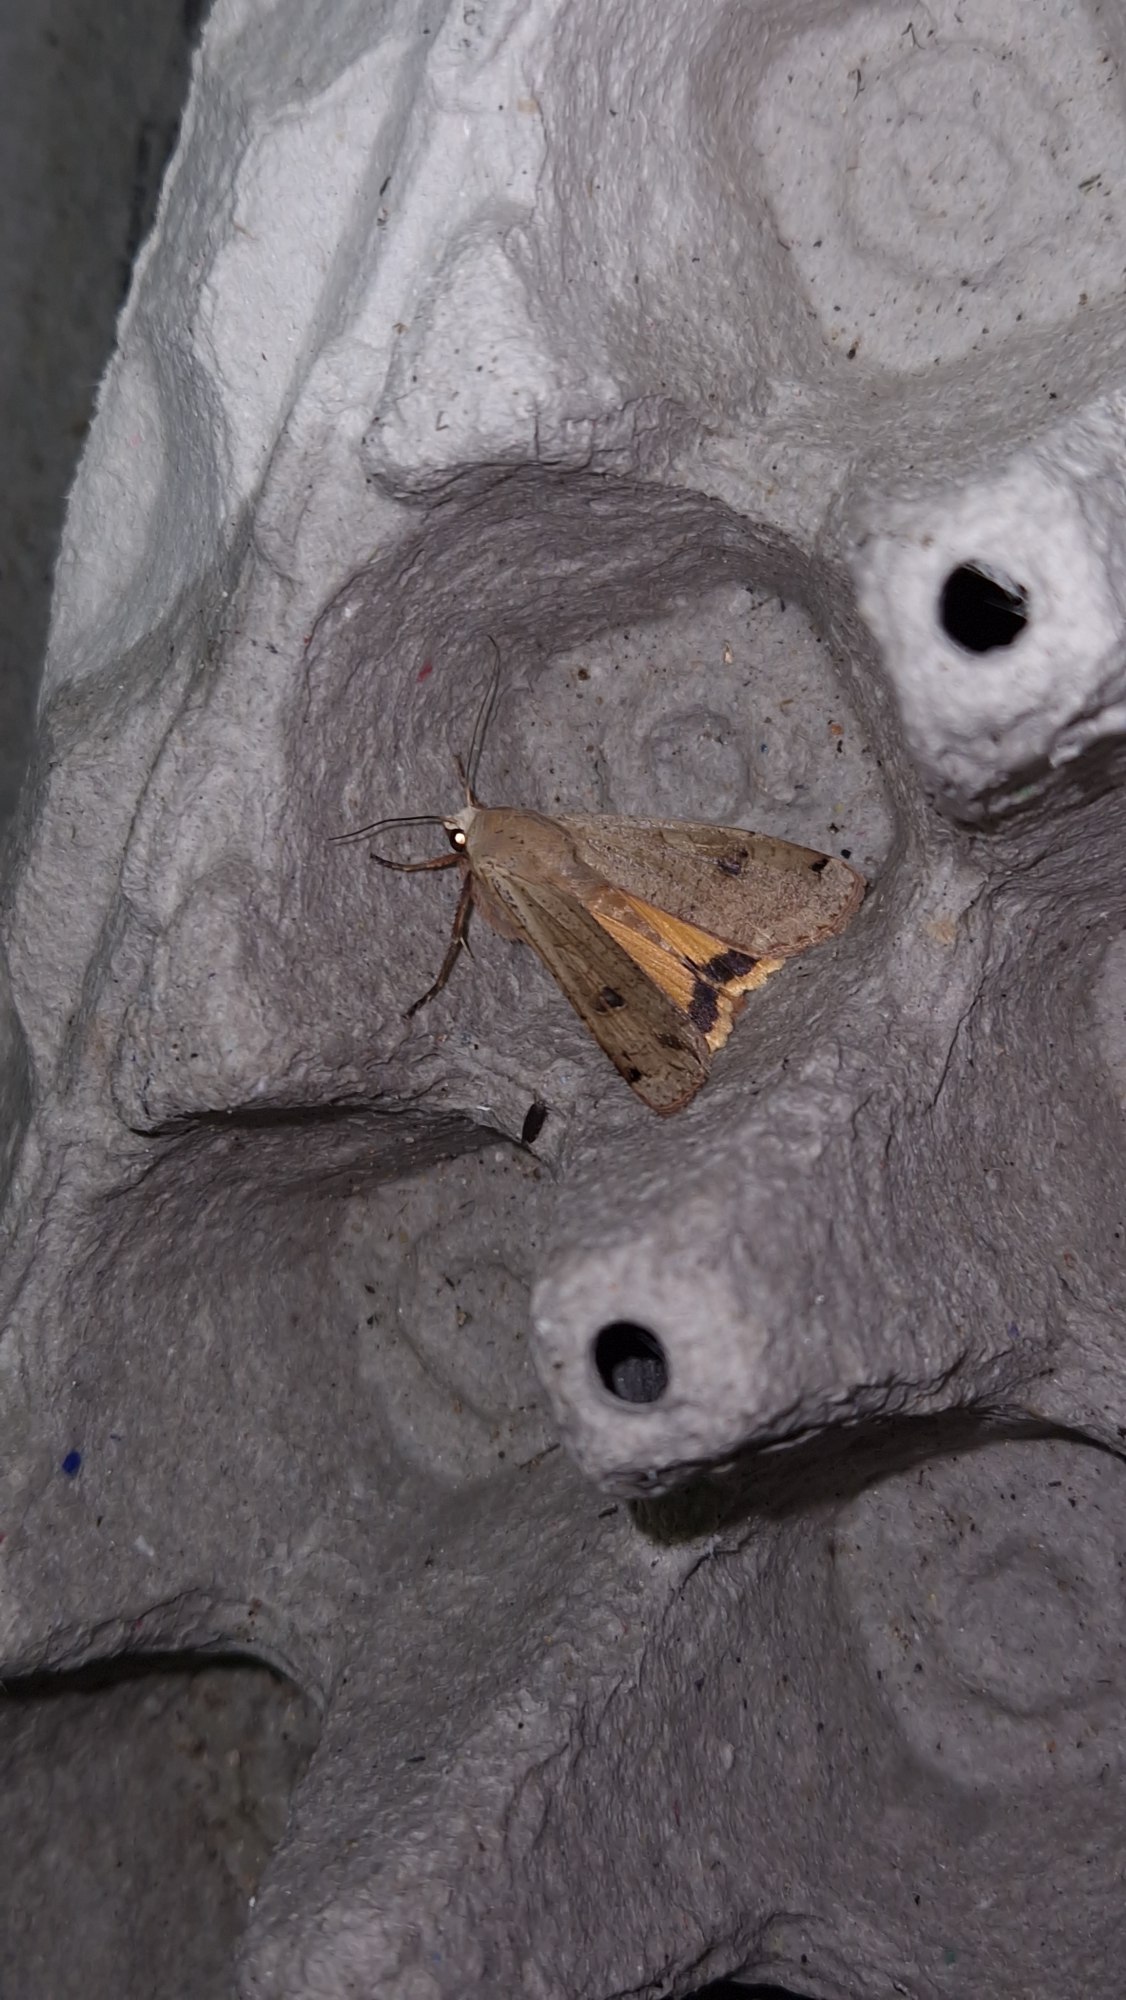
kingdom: Animalia
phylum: Arthropoda
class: Insecta
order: Lepidoptera
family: Noctuidae
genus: Noctua
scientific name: Noctua pronuba
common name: Stor smutugle
